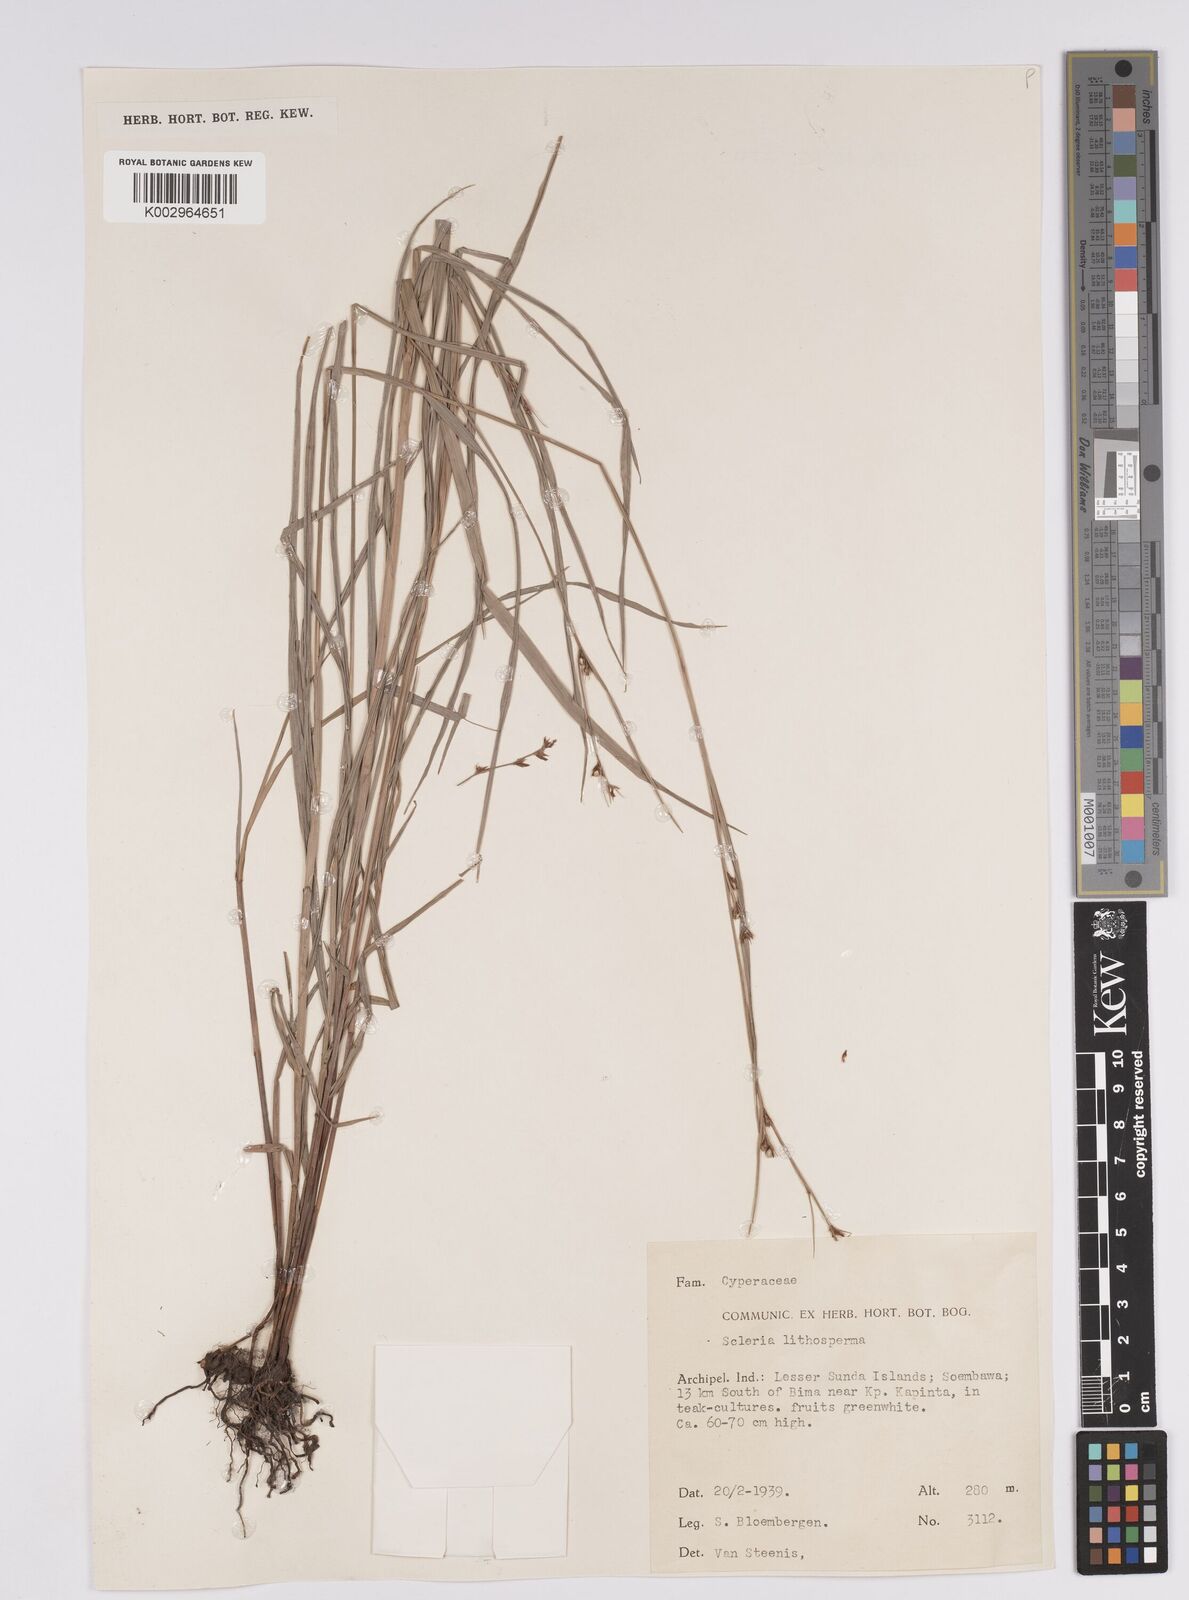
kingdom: Plantae
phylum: Tracheophyta
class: Liliopsida
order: Poales
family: Cyperaceae
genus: Scleria
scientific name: Scleria lithosperma
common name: Florida keys nut-rush
